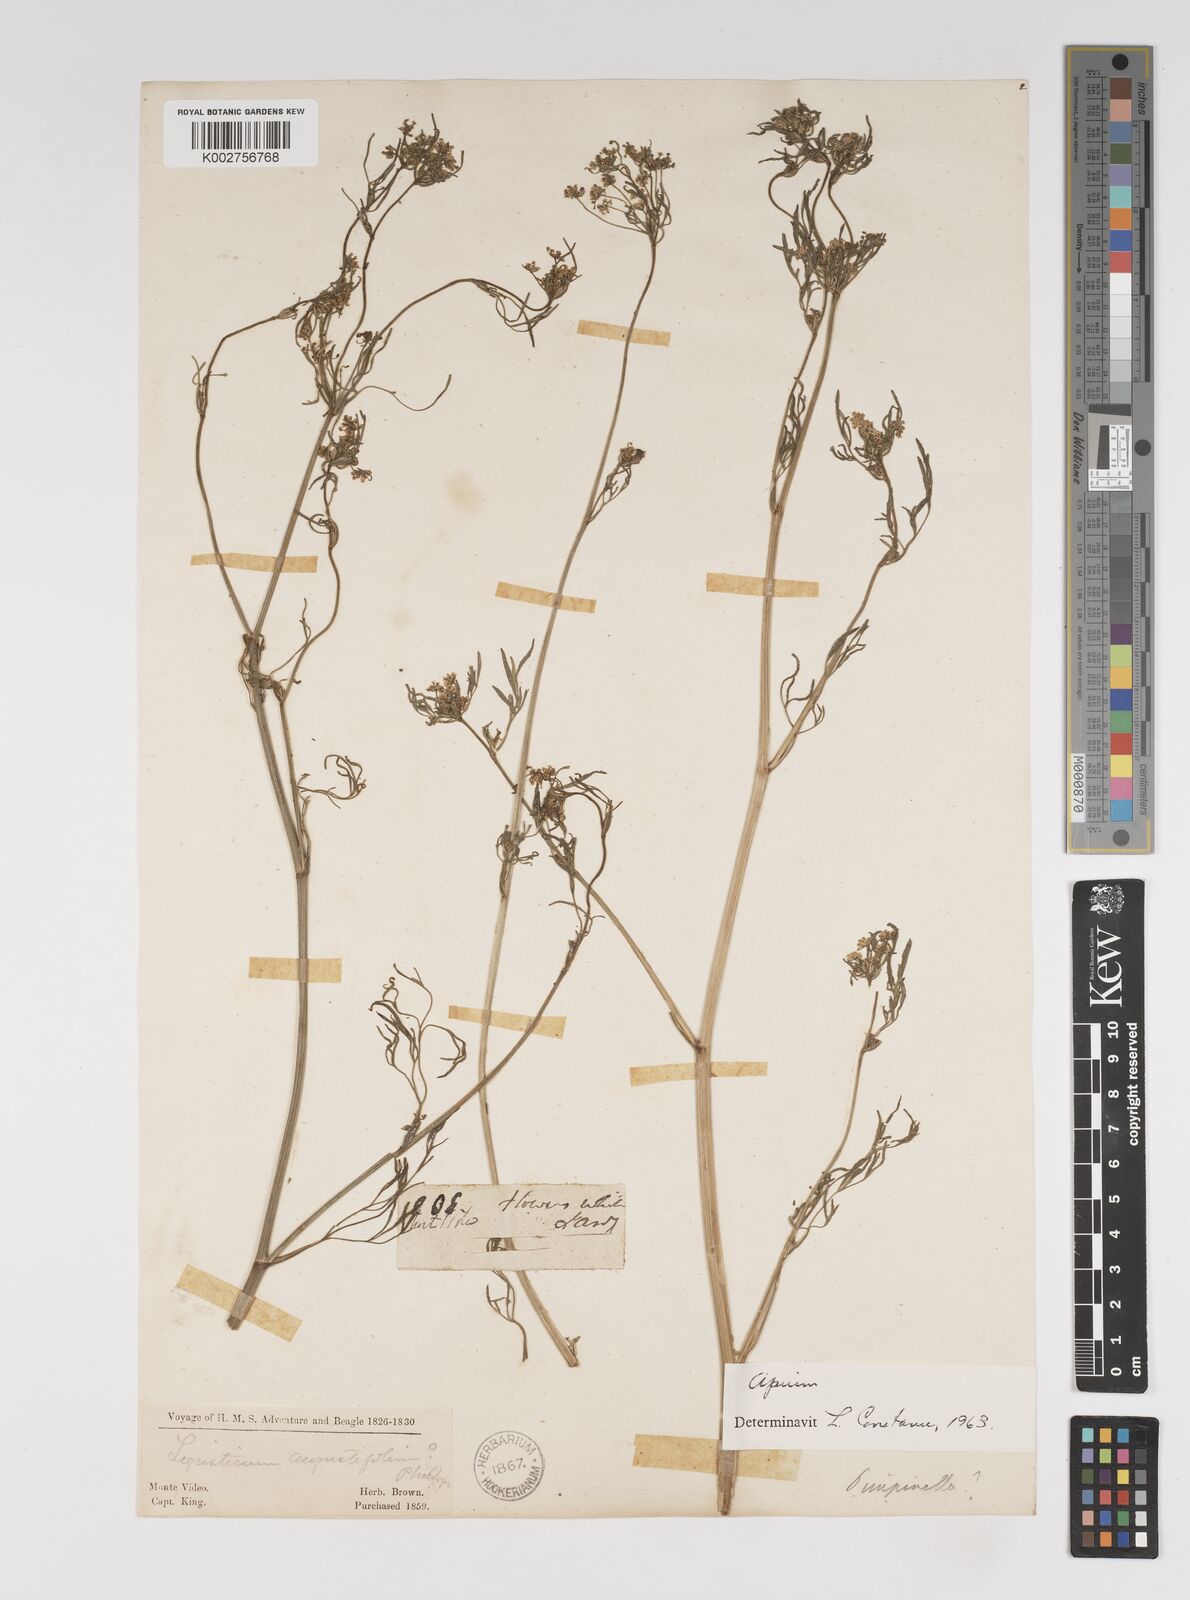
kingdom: Plantae
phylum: Tracheophyta
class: Magnoliopsida
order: Apiales
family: Apiaceae
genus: Pimpinella
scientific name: Pimpinella saxifraga
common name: Burnet-saxifrage
